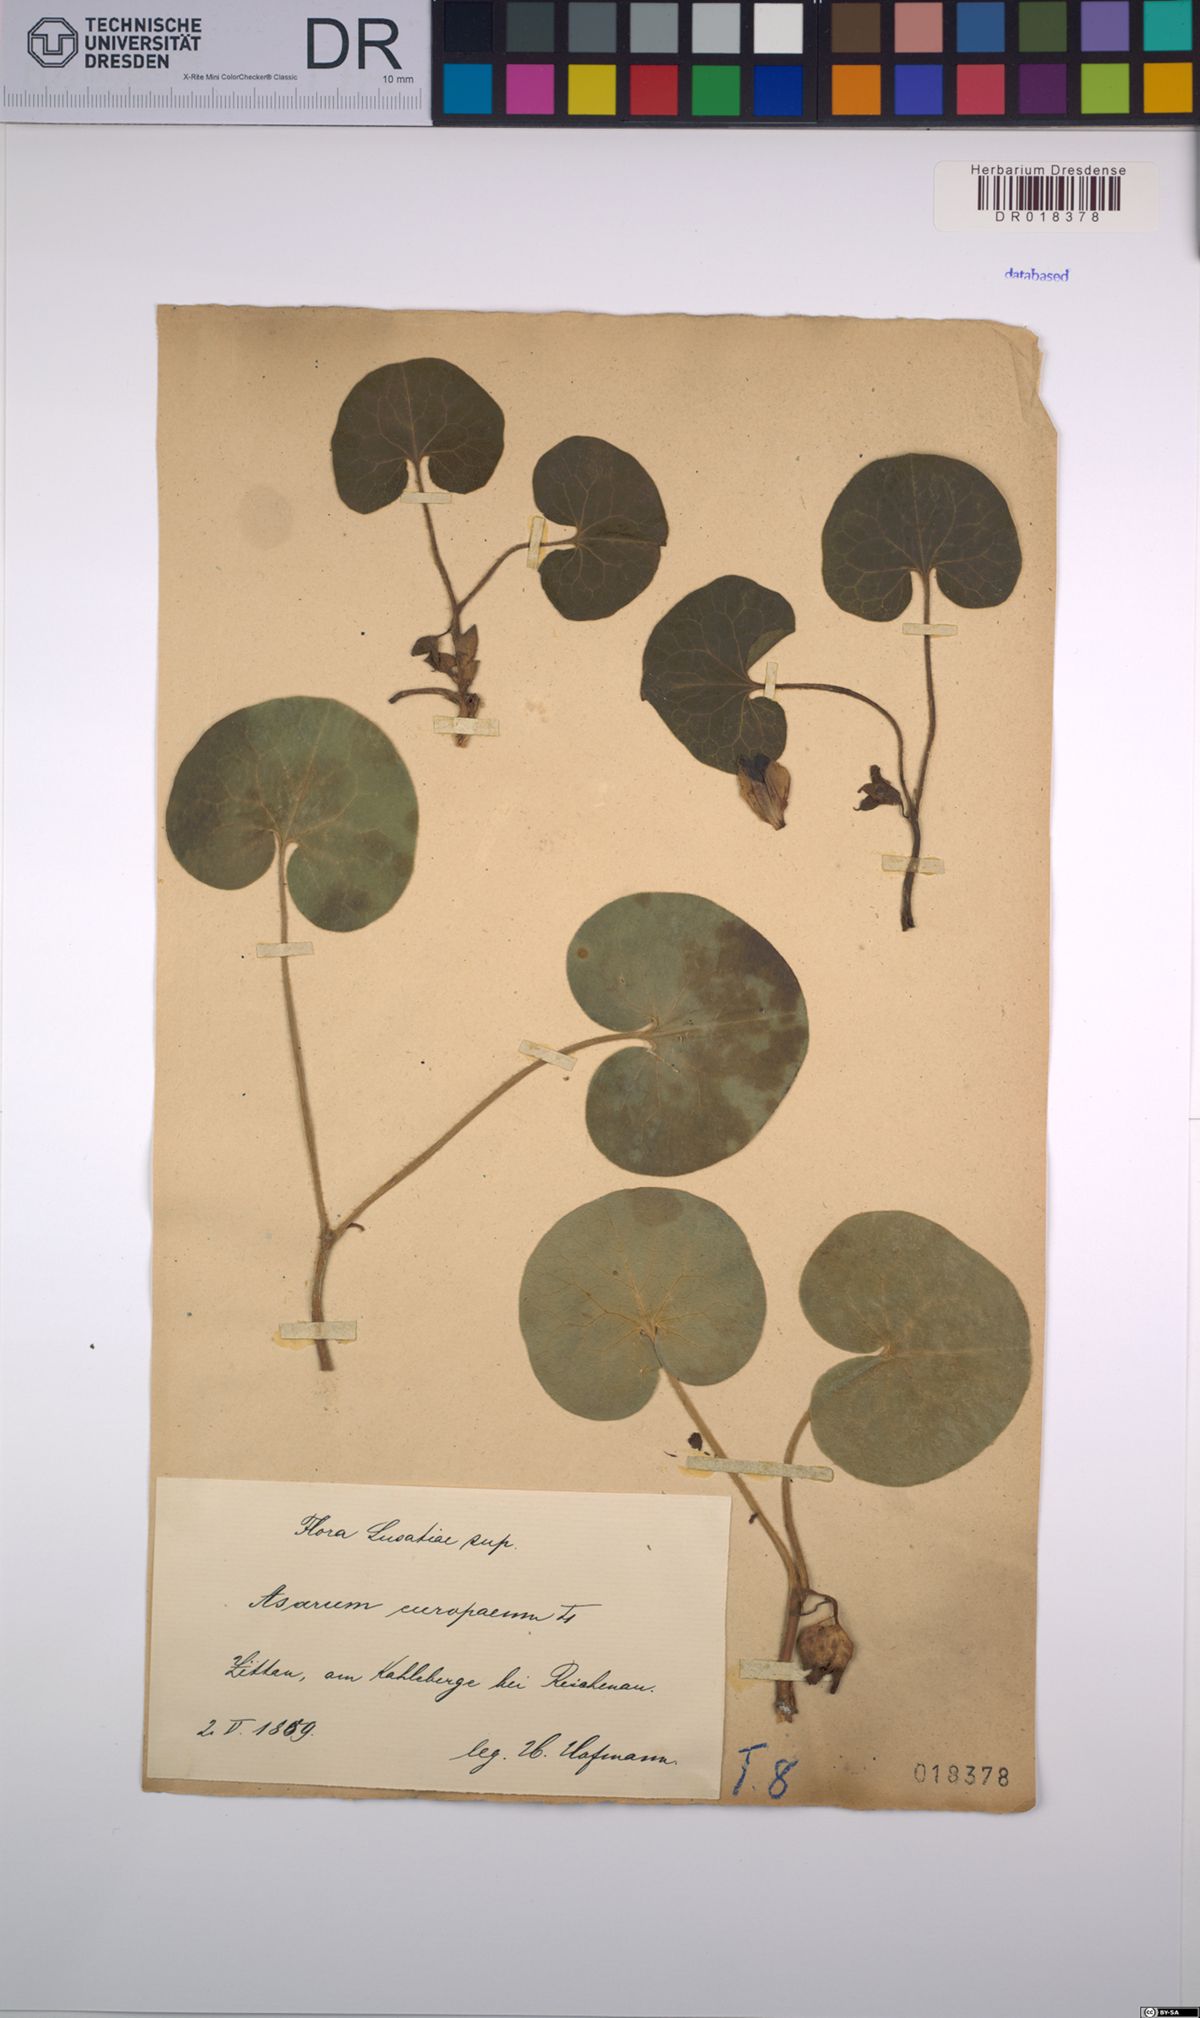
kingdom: Plantae
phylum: Tracheophyta
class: Magnoliopsida
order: Piperales
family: Aristolochiaceae
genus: Asarum
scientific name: Asarum europaeum
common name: Asarabacca
